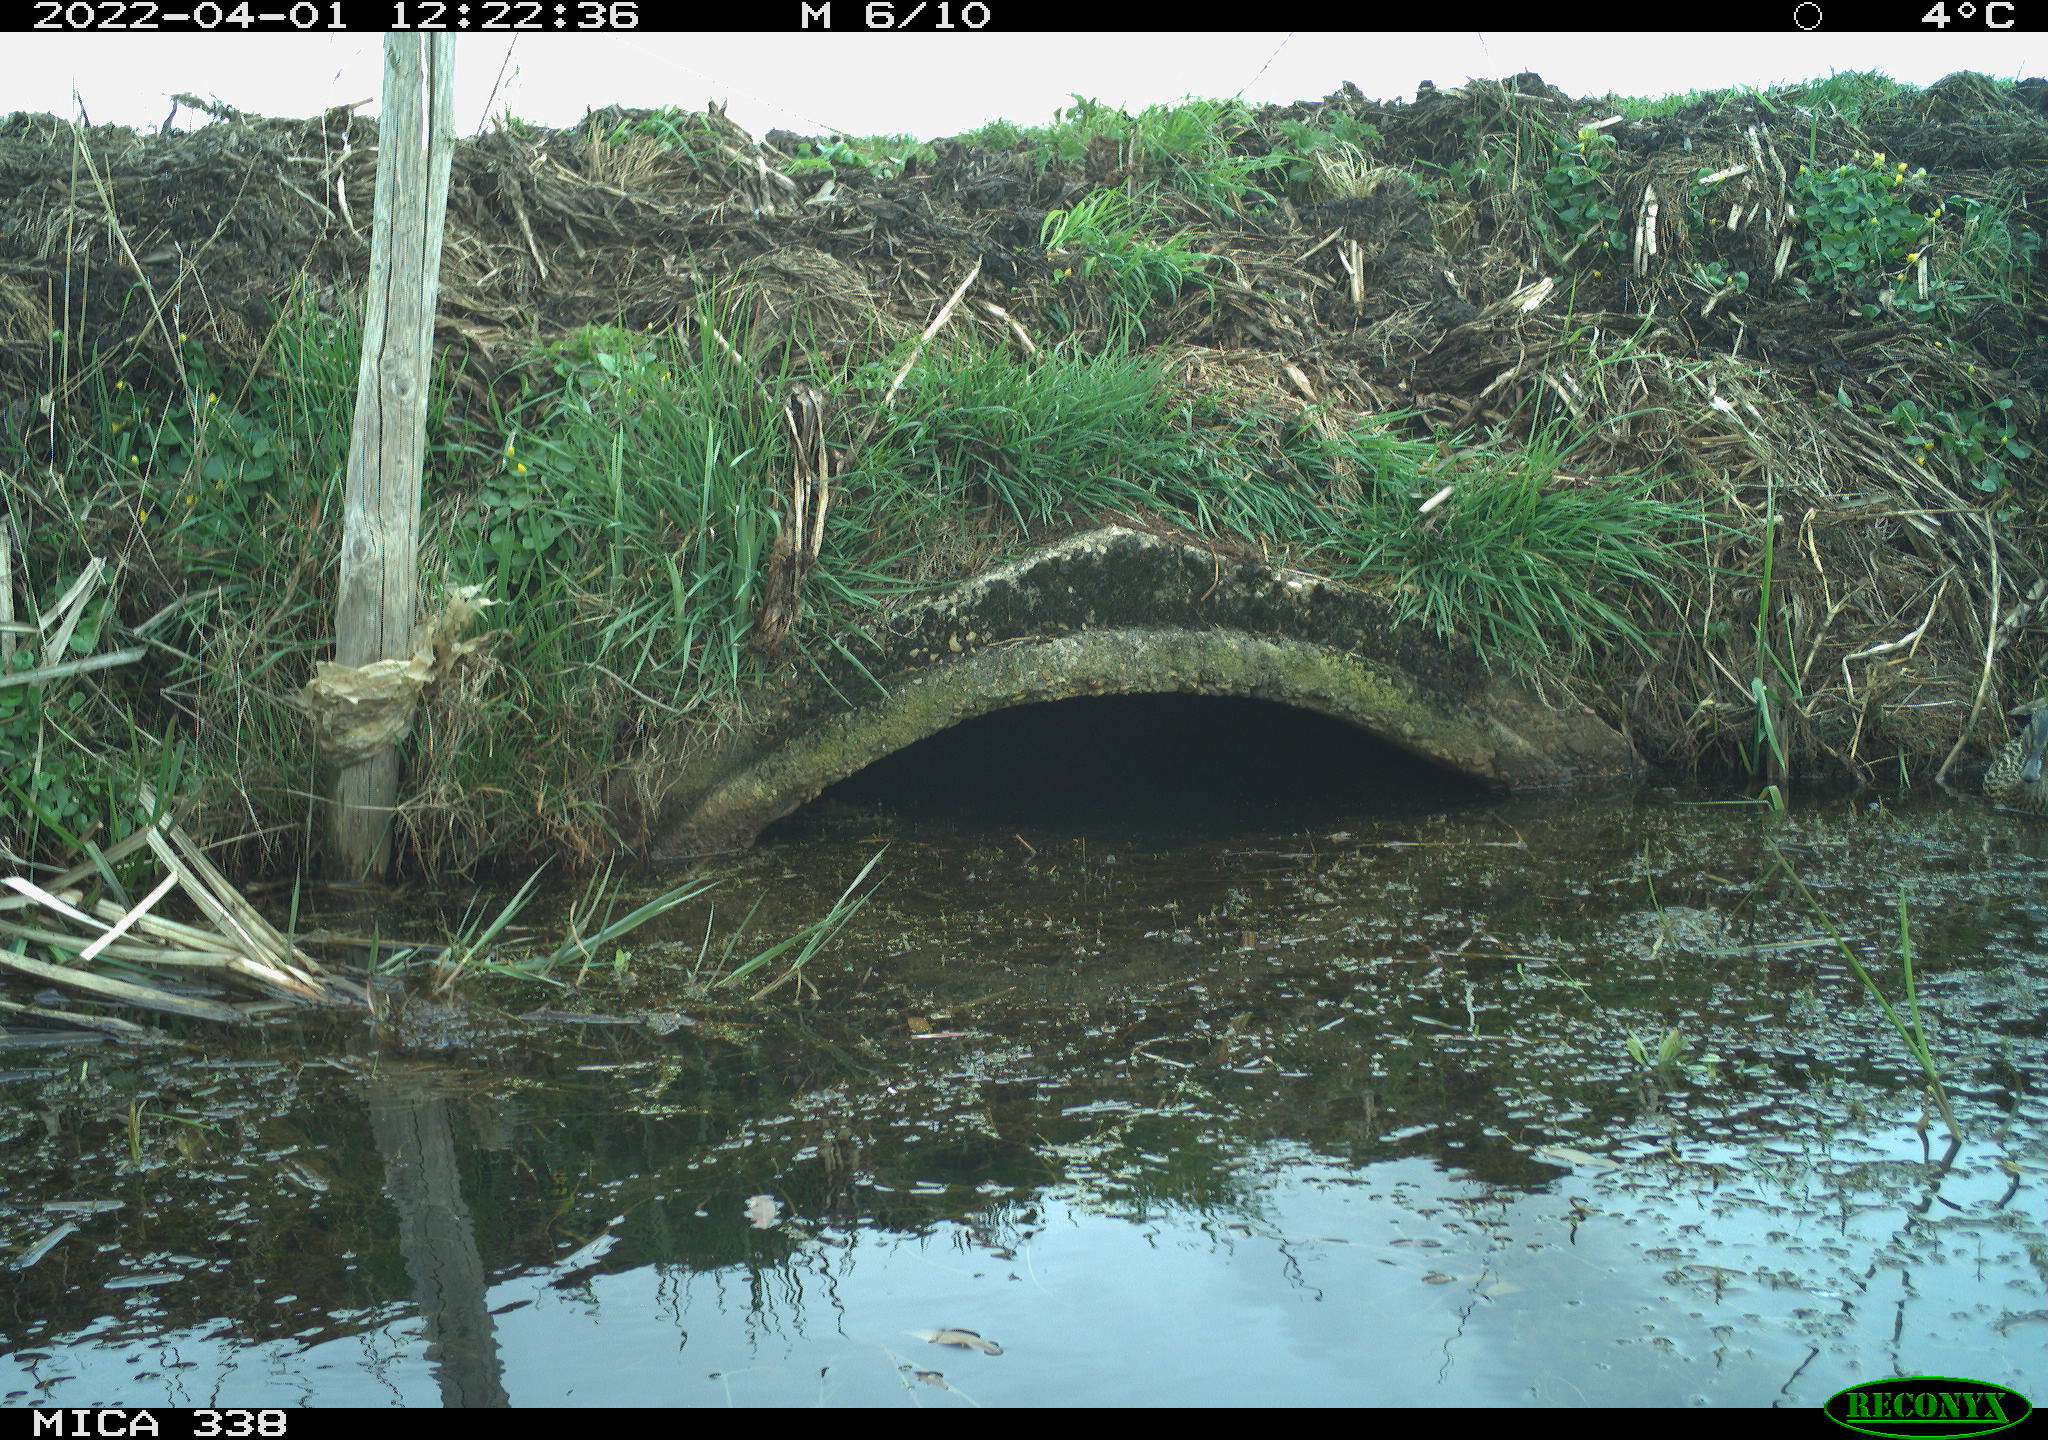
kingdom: Animalia
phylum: Chordata
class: Aves
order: Anseriformes
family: Anatidae
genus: Anas
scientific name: Anas platyrhynchos
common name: Mallard
